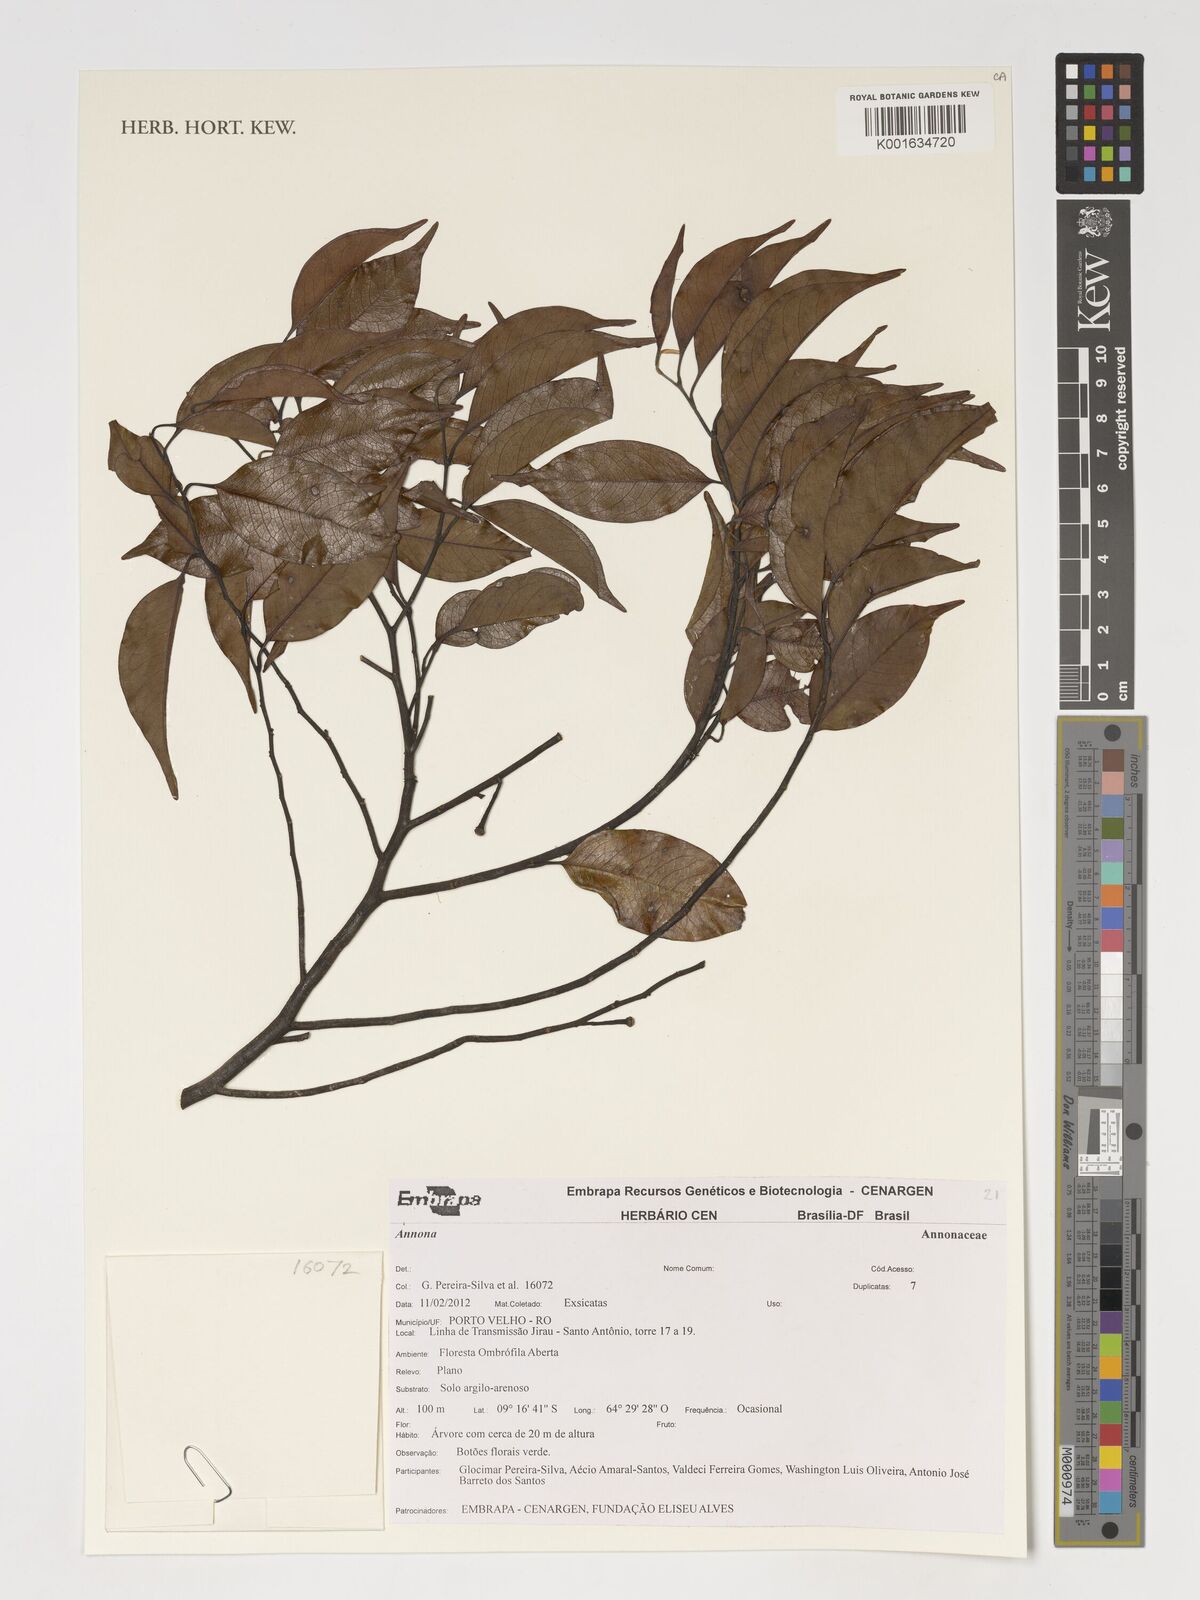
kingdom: Plantae
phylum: Tracheophyta
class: Magnoliopsida
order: Magnoliales
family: Annonaceae
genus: Annona
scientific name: Annona
